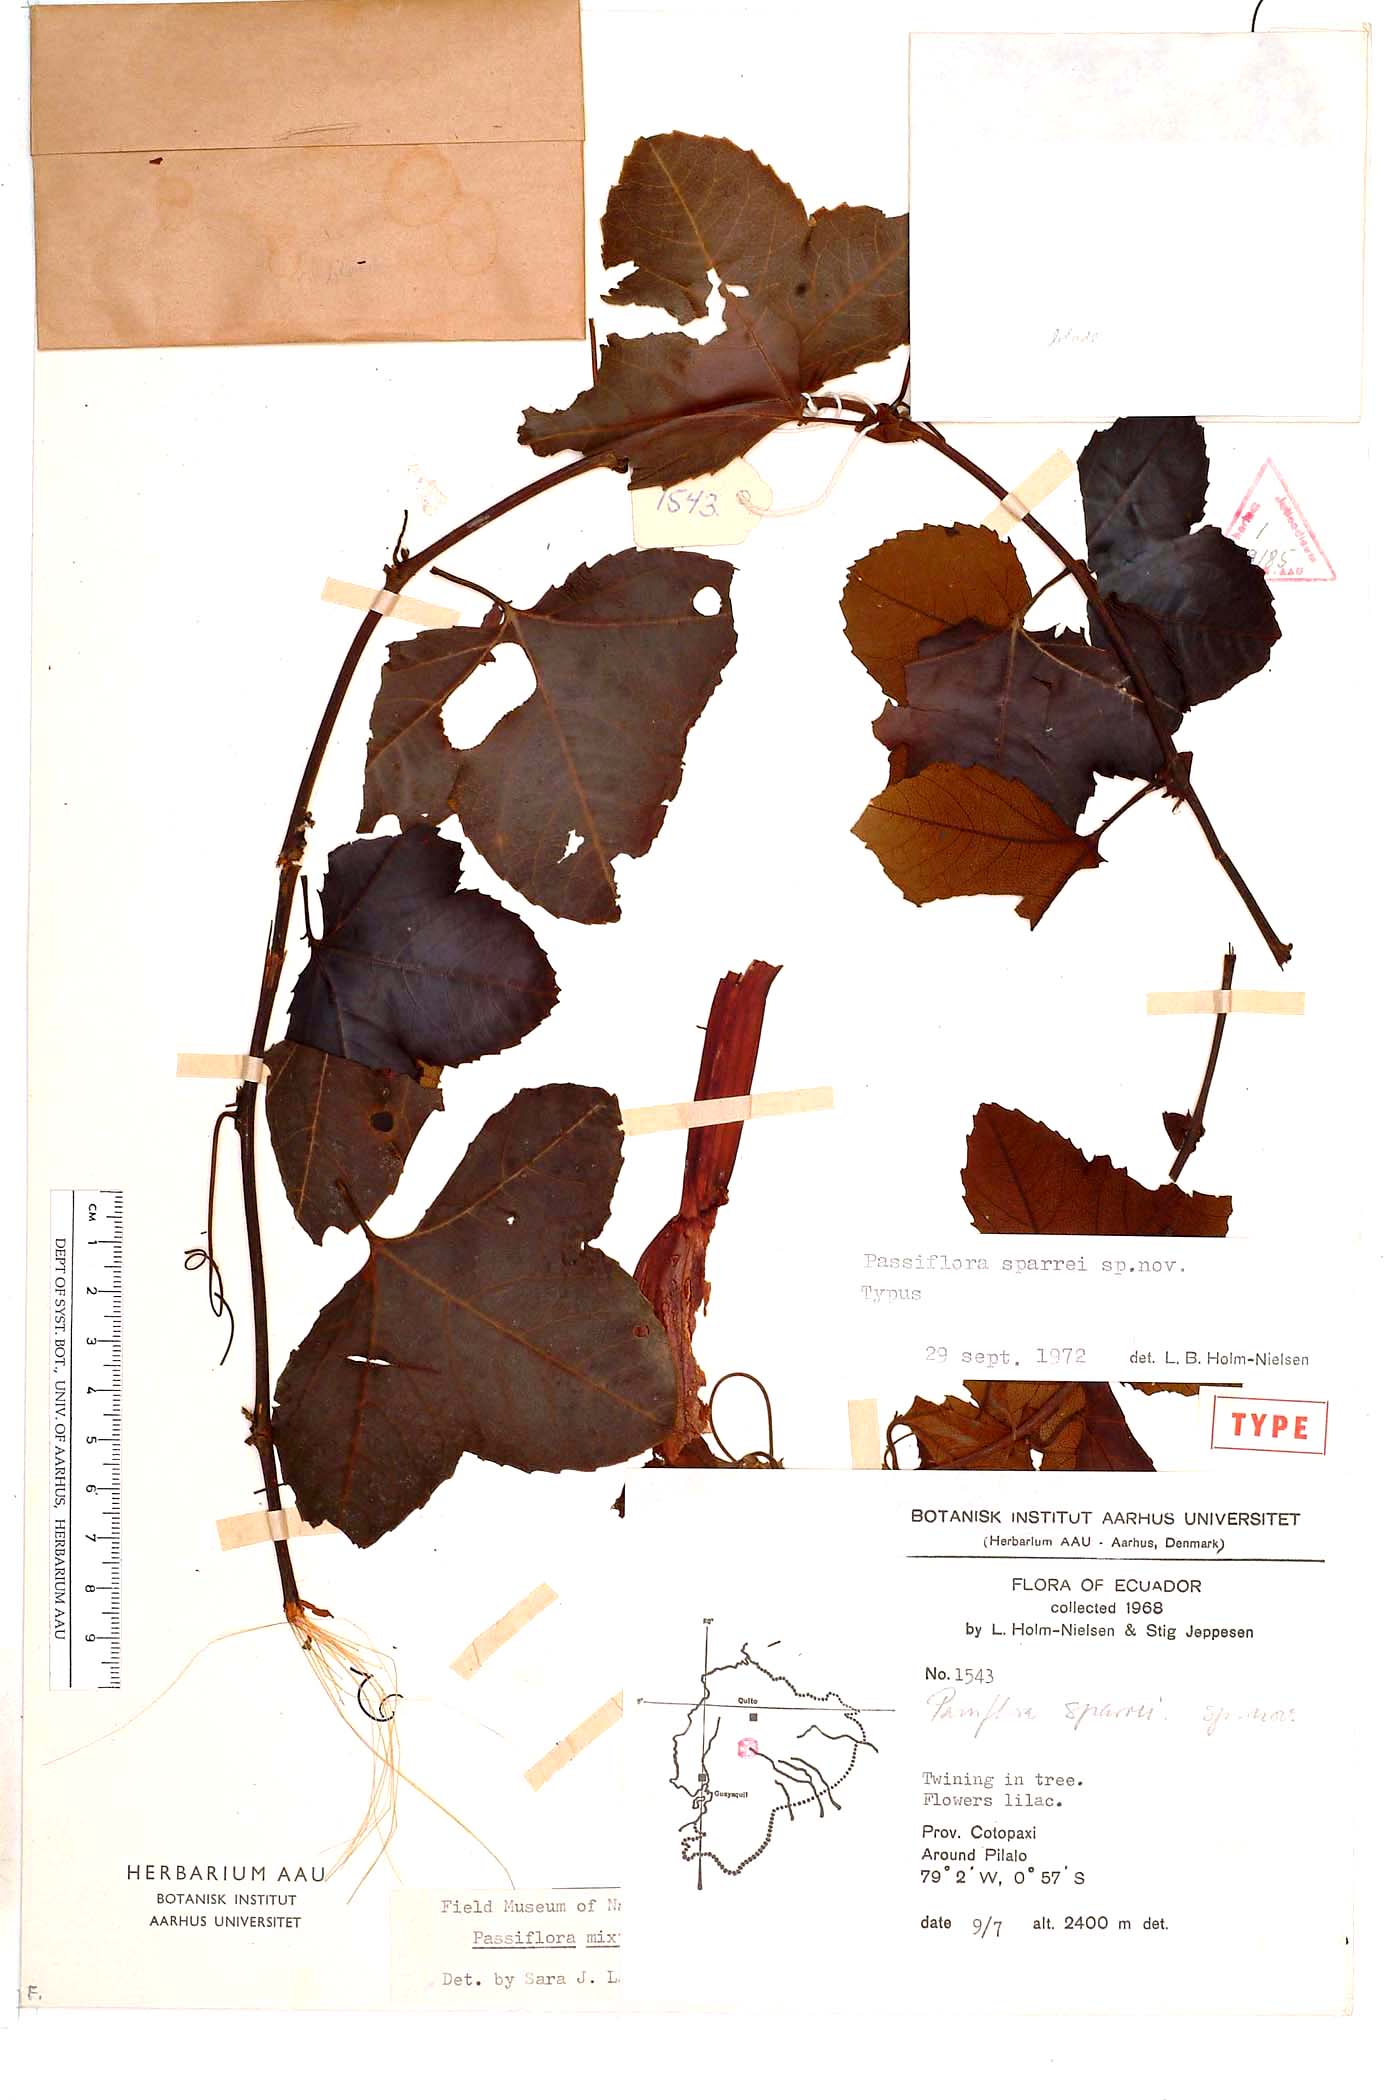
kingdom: Plantae
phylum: Tracheophyta
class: Magnoliopsida
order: Malpighiales
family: Passifloraceae
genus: Passiflora
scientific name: Passiflora cumbalensis
